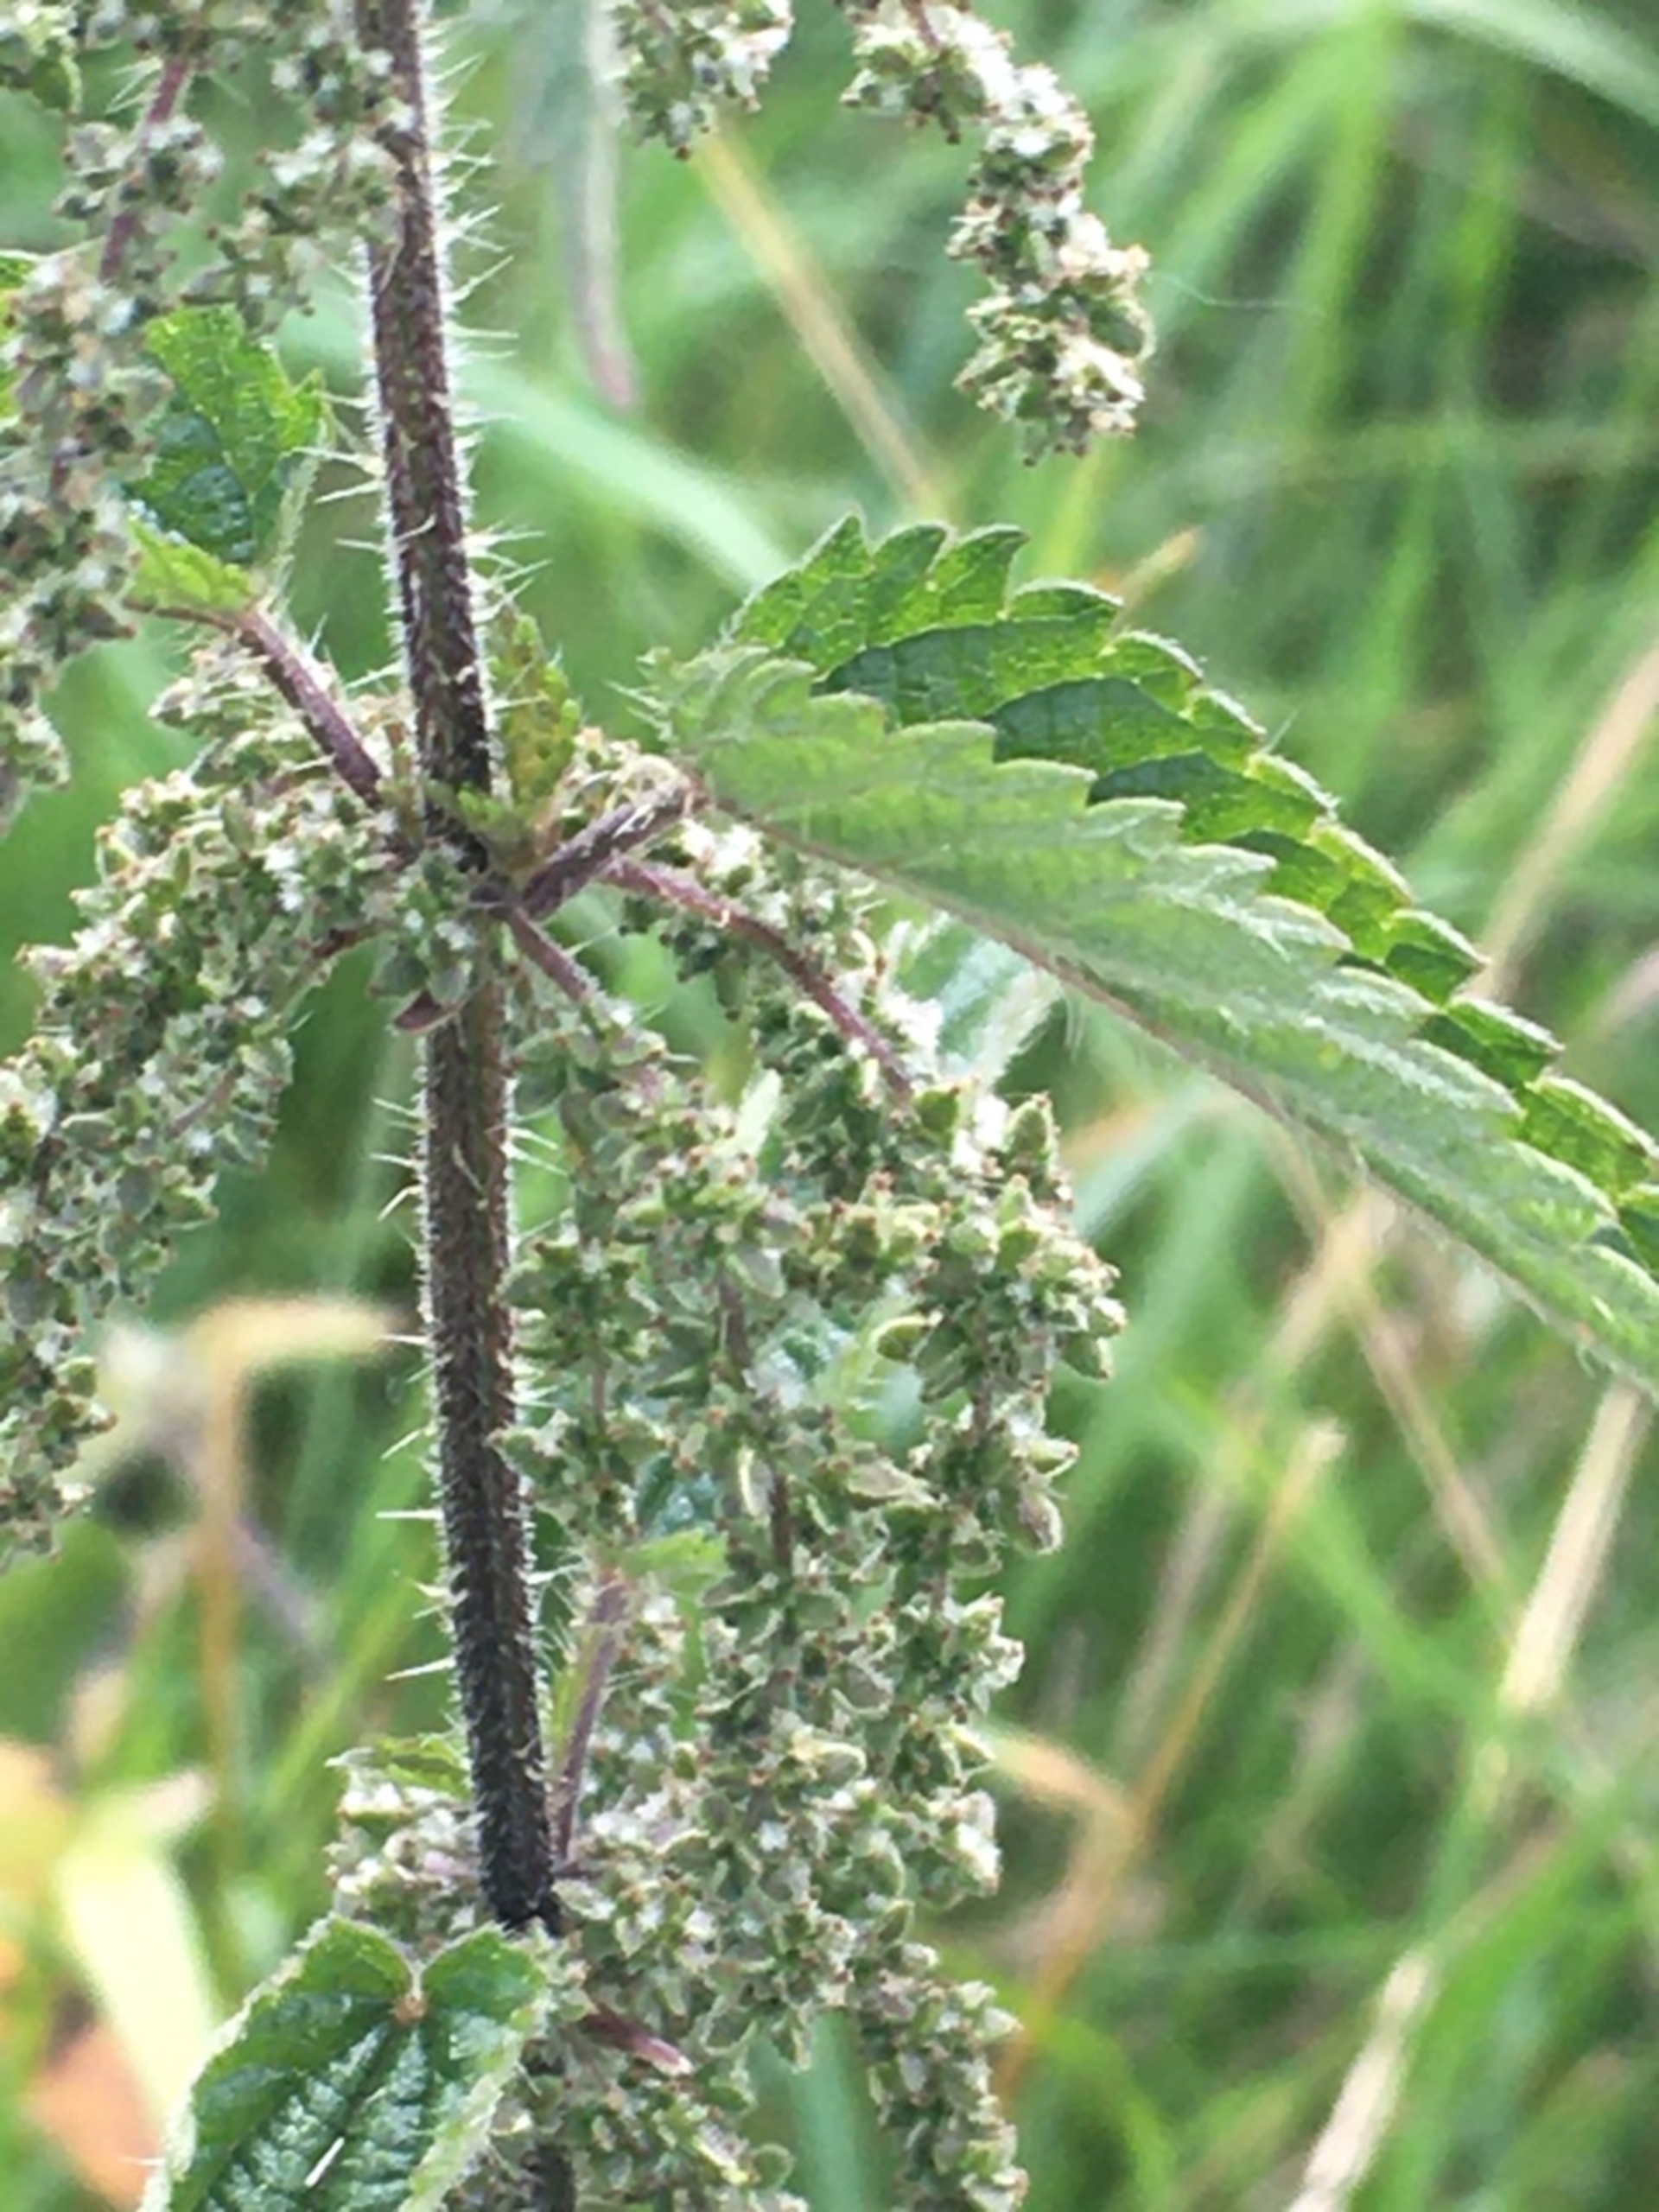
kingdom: Plantae
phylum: Tracheophyta
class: Magnoliopsida
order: Rosales
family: Urticaceae
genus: Urtica
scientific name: Urtica dioica
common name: Stor nælde
